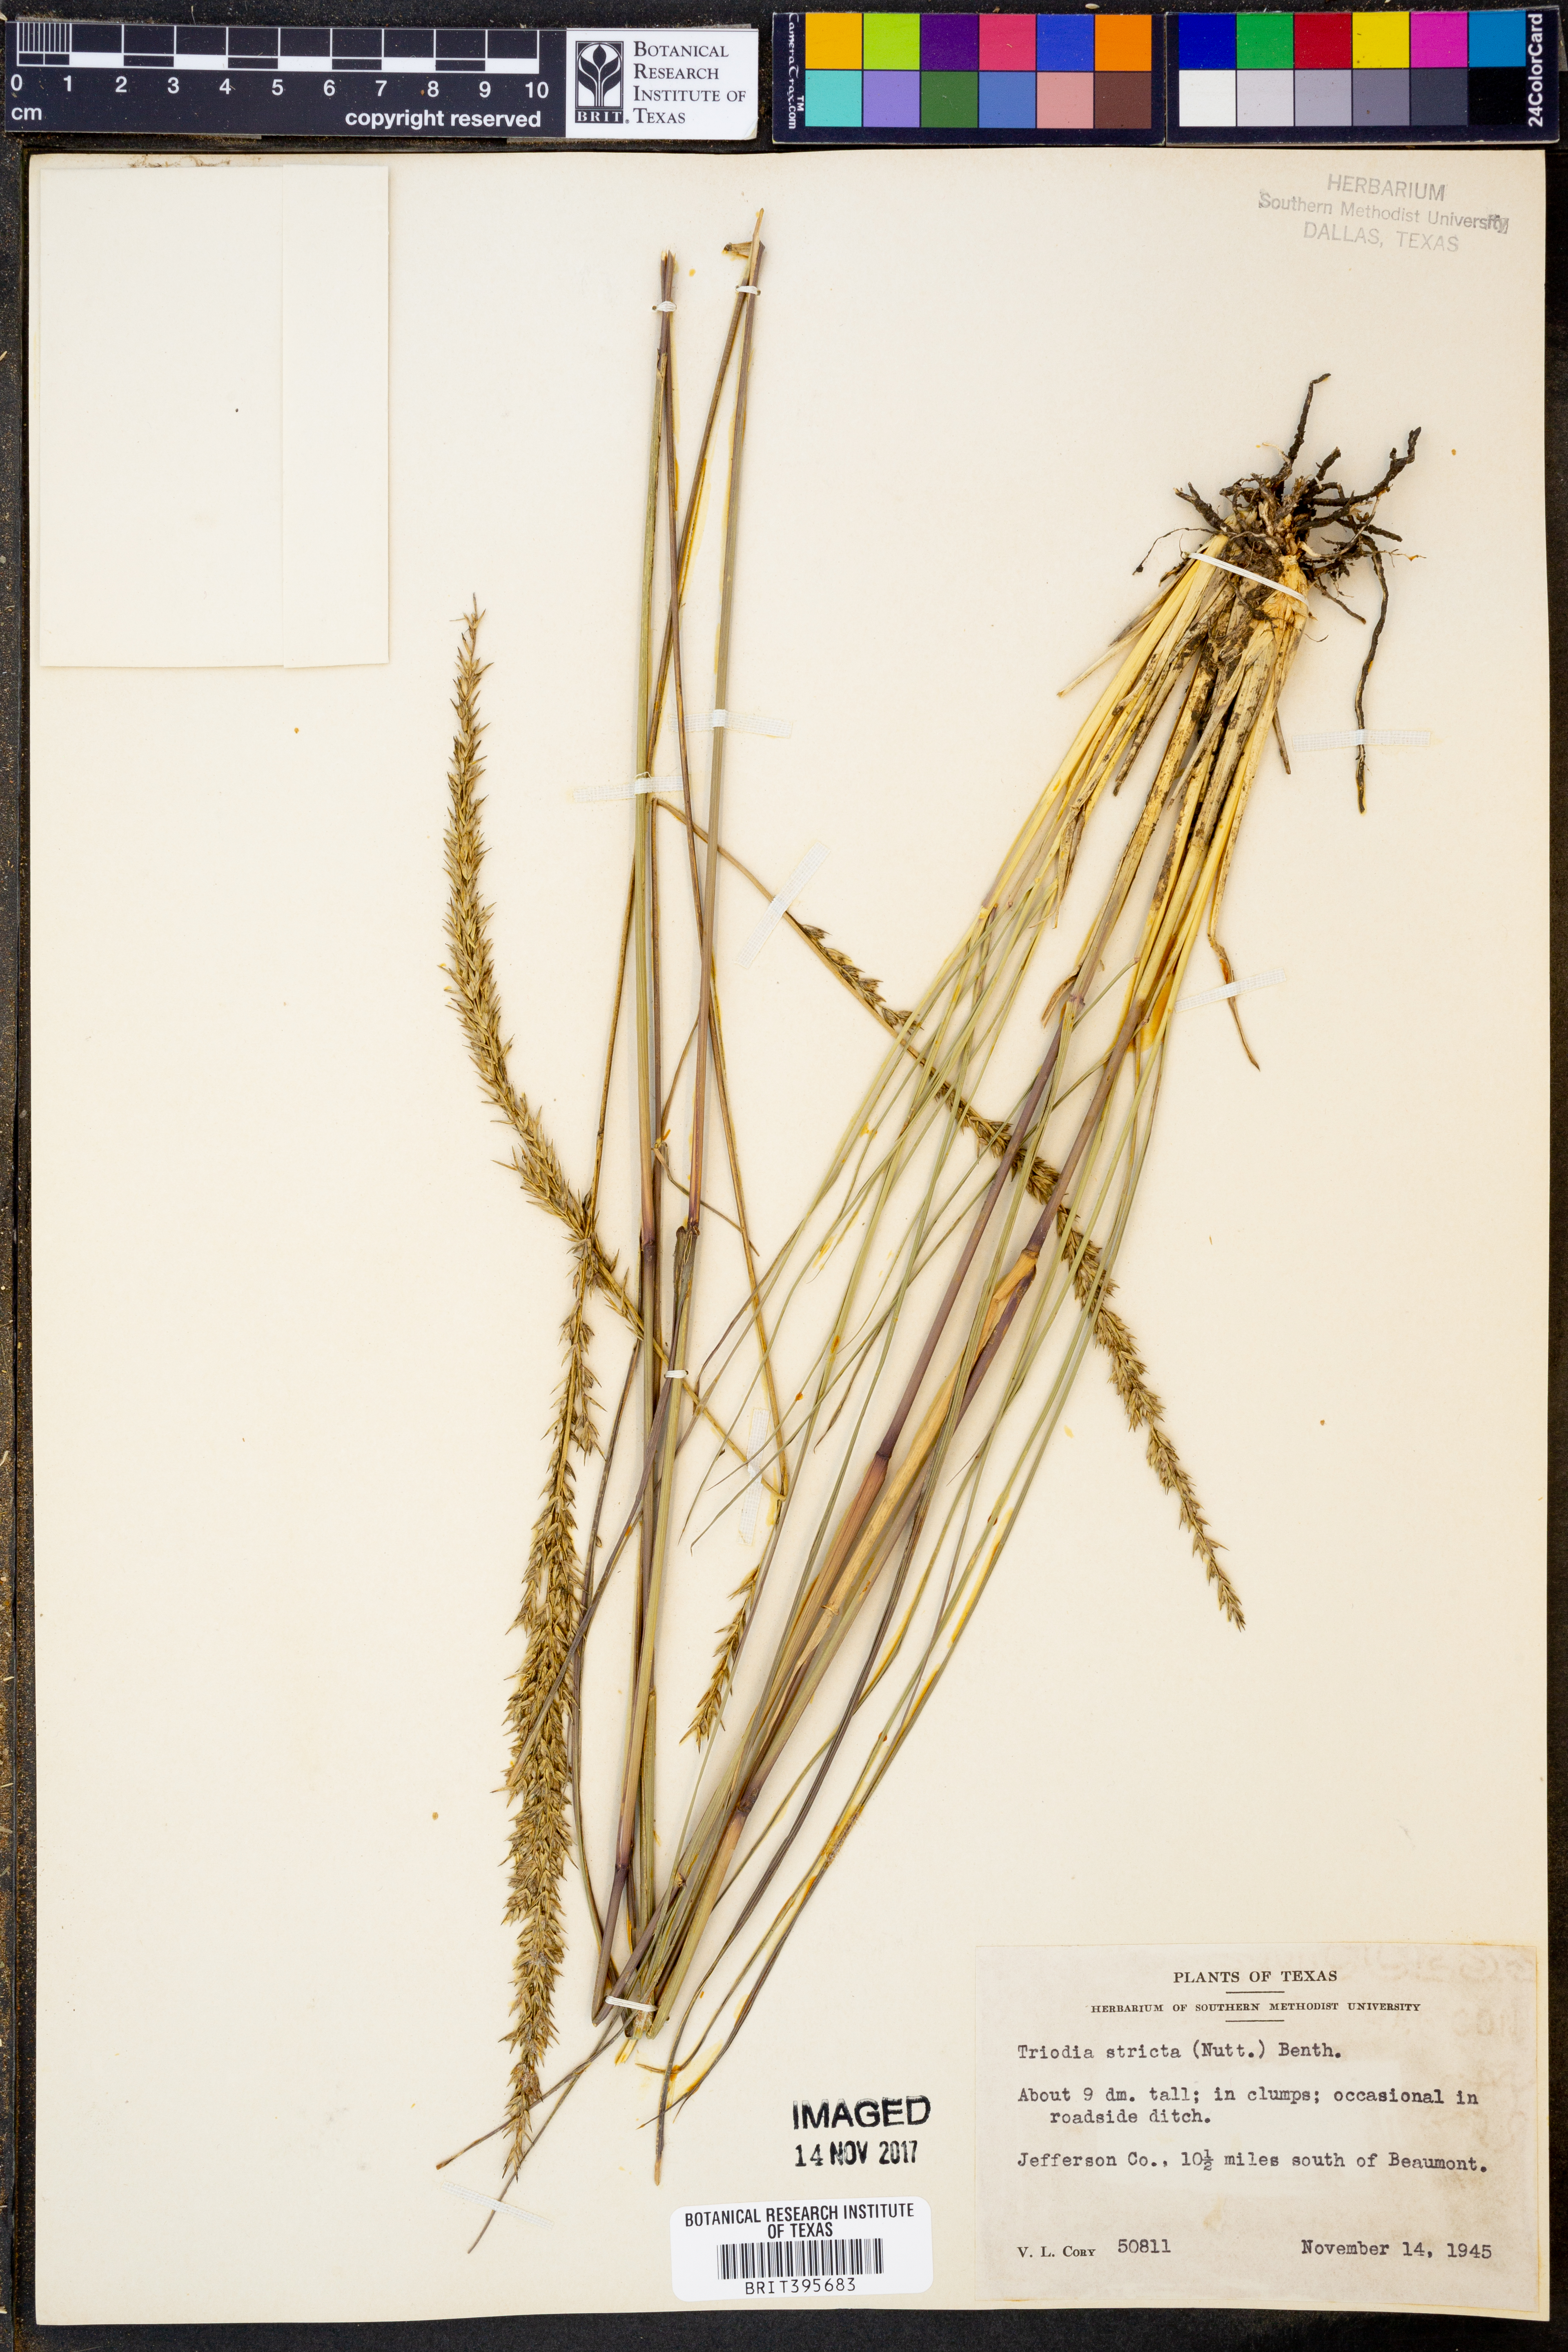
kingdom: Plantae
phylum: Tracheophyta
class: Liliopsida
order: Poales
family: Poaceae
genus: Tridens
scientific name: Tridens strictus
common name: Long-spike tridens
